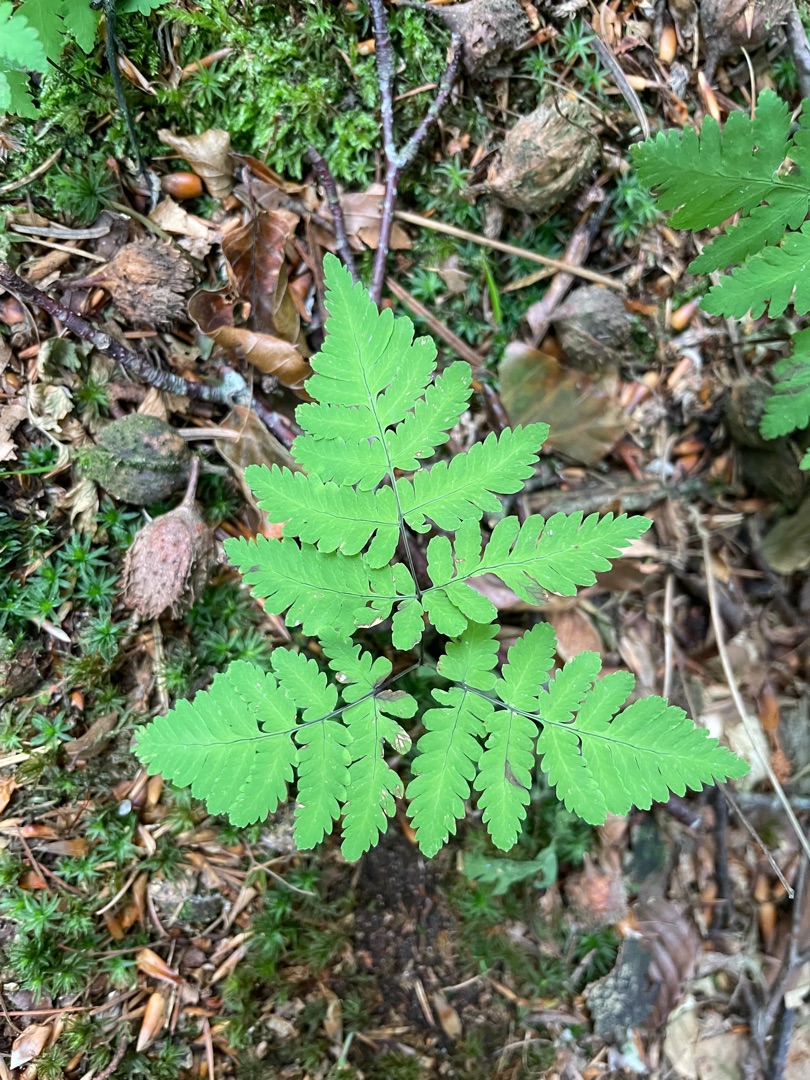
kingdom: Plantae
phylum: Tracheophyta
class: Polypodiopsida
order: Polypodiales
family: Cystopteridaceae
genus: Gymnocarpium
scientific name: Gymnocarpium dryopteris
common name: Tredelt egebregne
